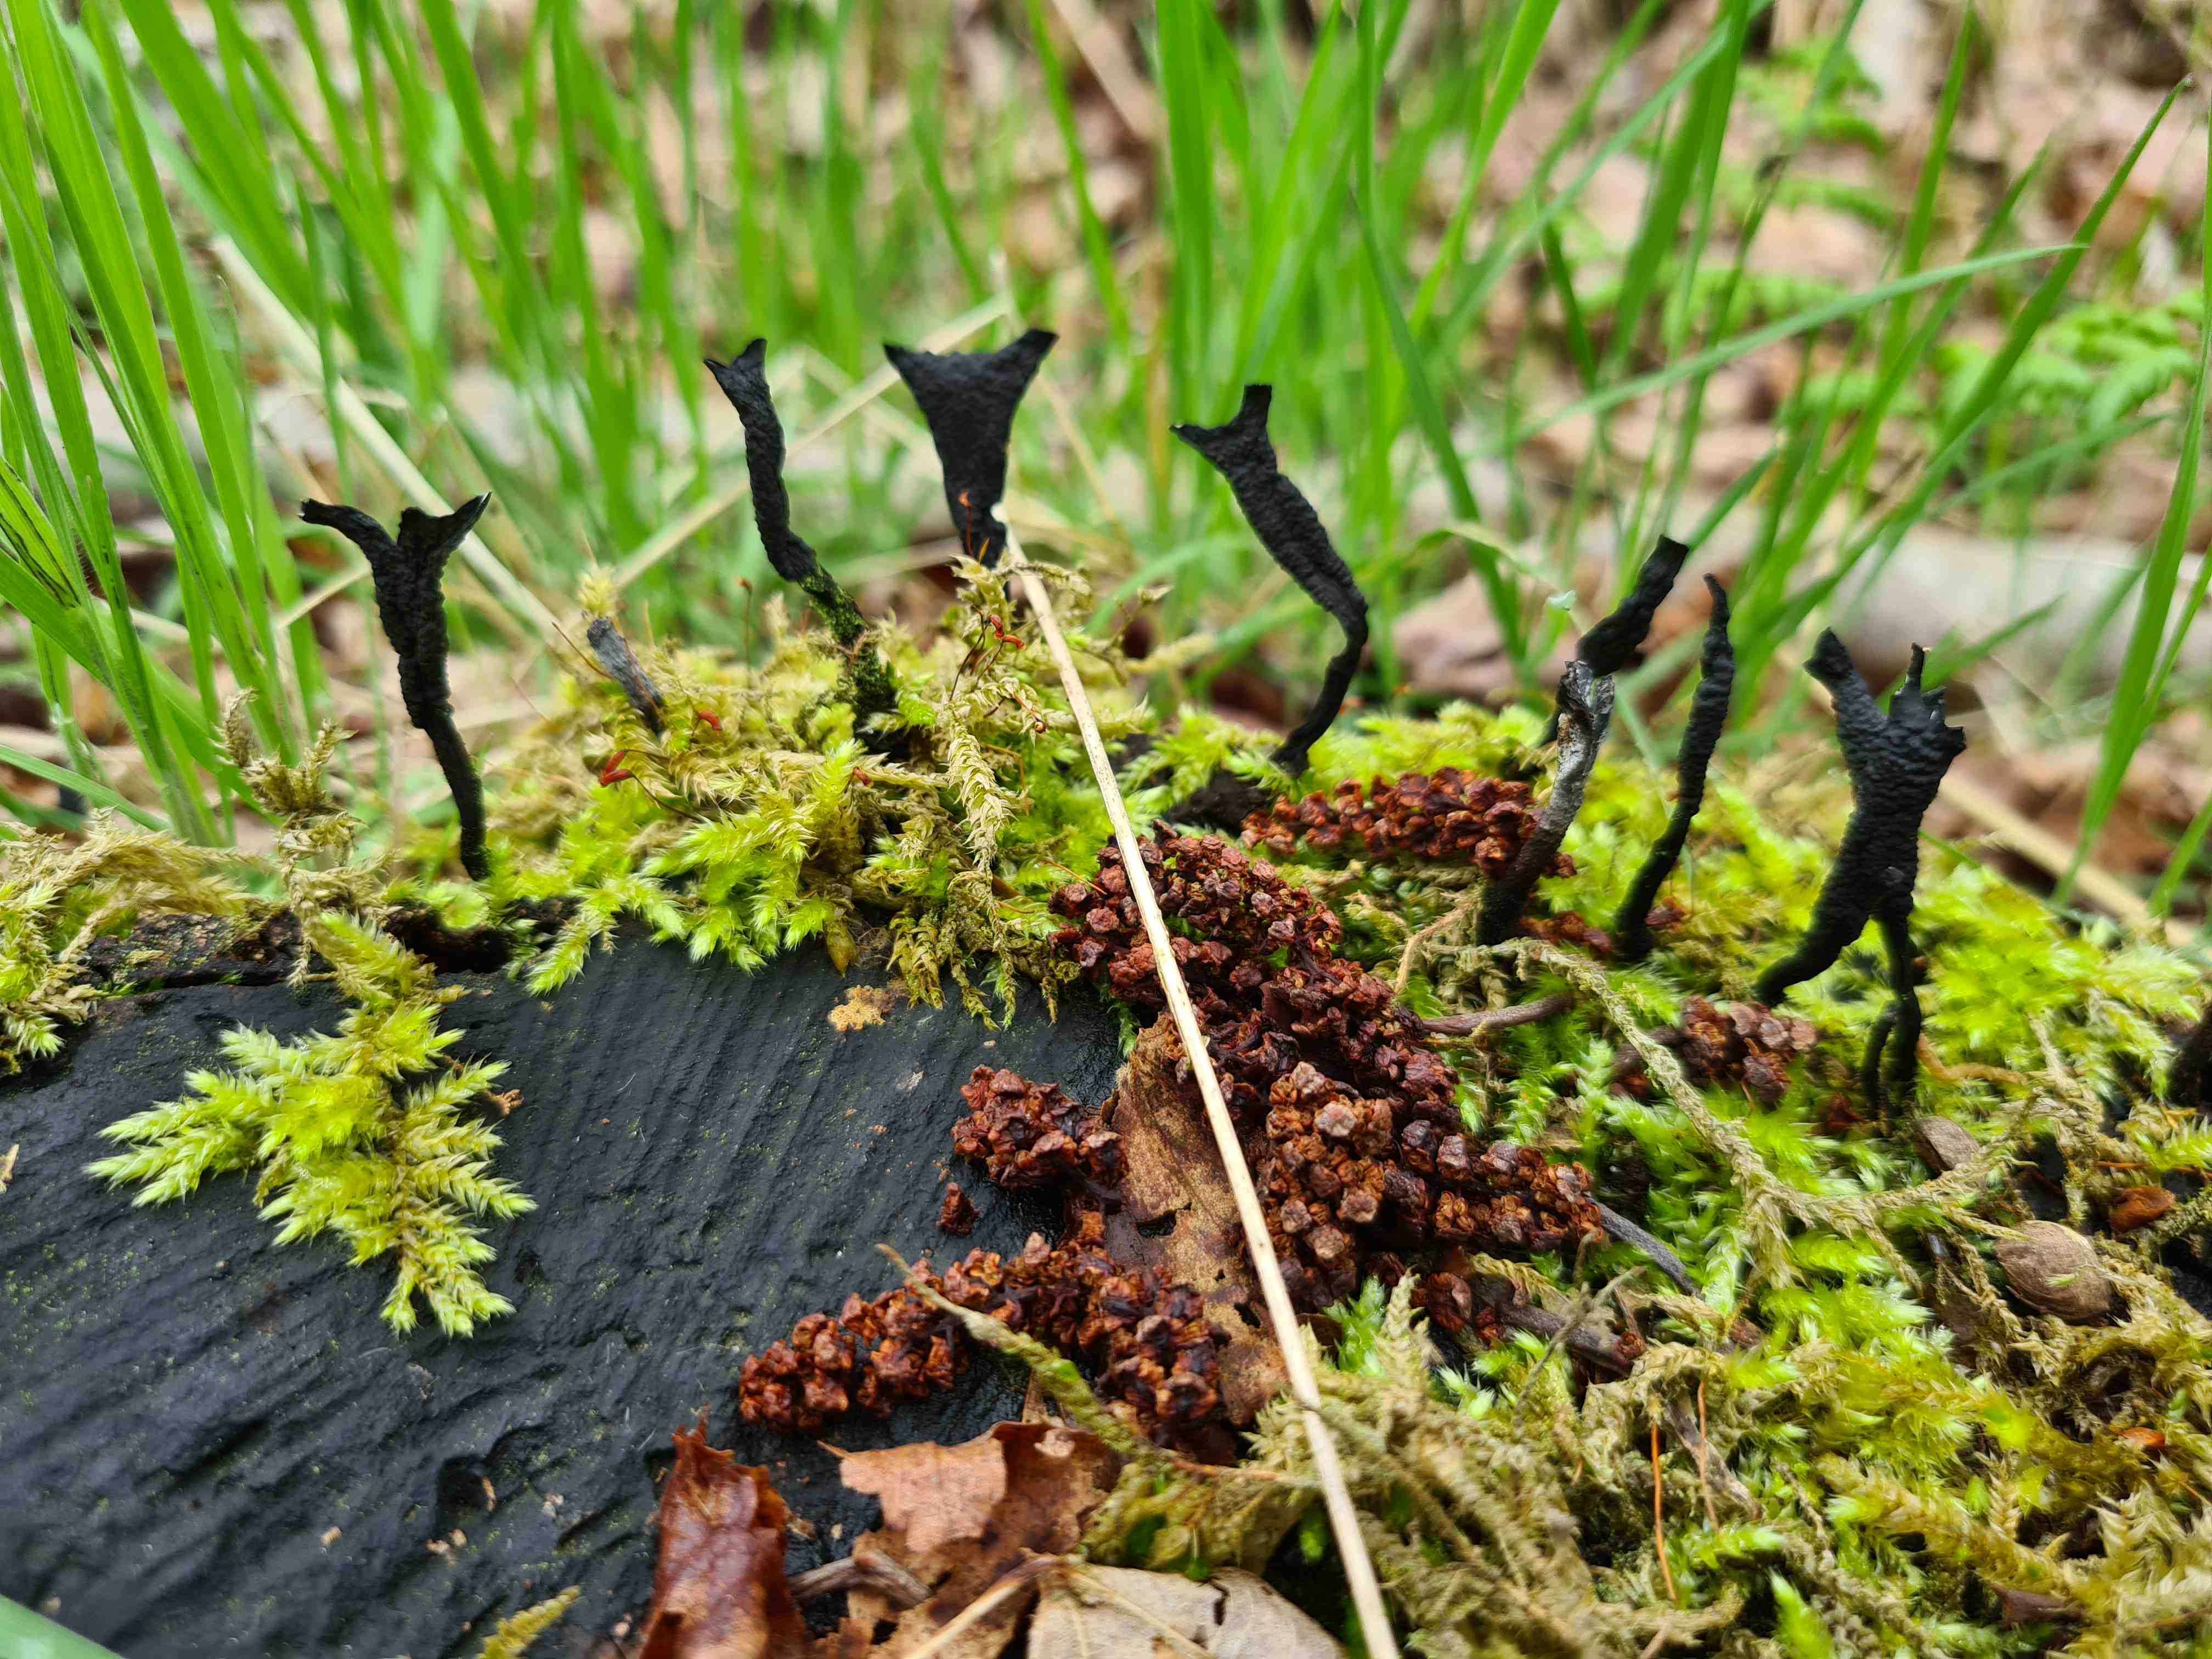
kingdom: Fungi
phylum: Ascomycota
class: Sordariomycetes
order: Xylariales
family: Xylariaceae
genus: Xylaria
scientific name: Xylaria hypoxylon
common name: grenet stødsvamp
